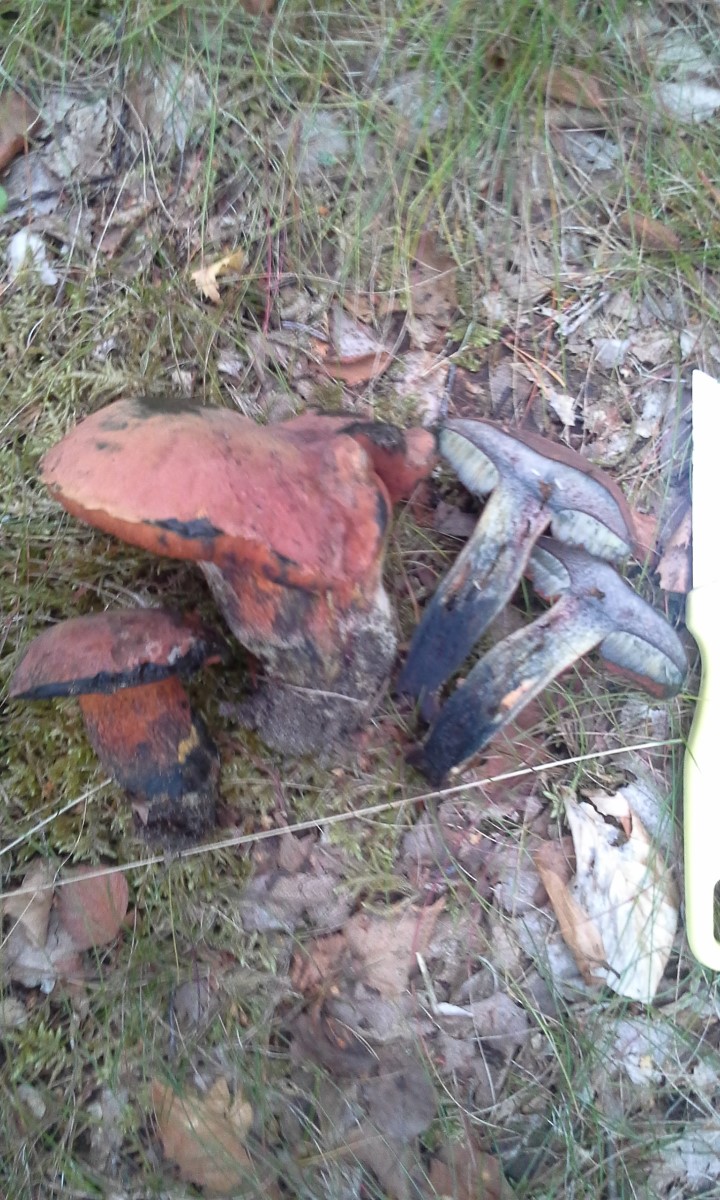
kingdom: Fungi
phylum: Basidiomycota
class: Agaricomycetes
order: Boletales
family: Boletaceae
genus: Suillellus
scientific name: Suillellus luridus
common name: netstokket indigorørhat
